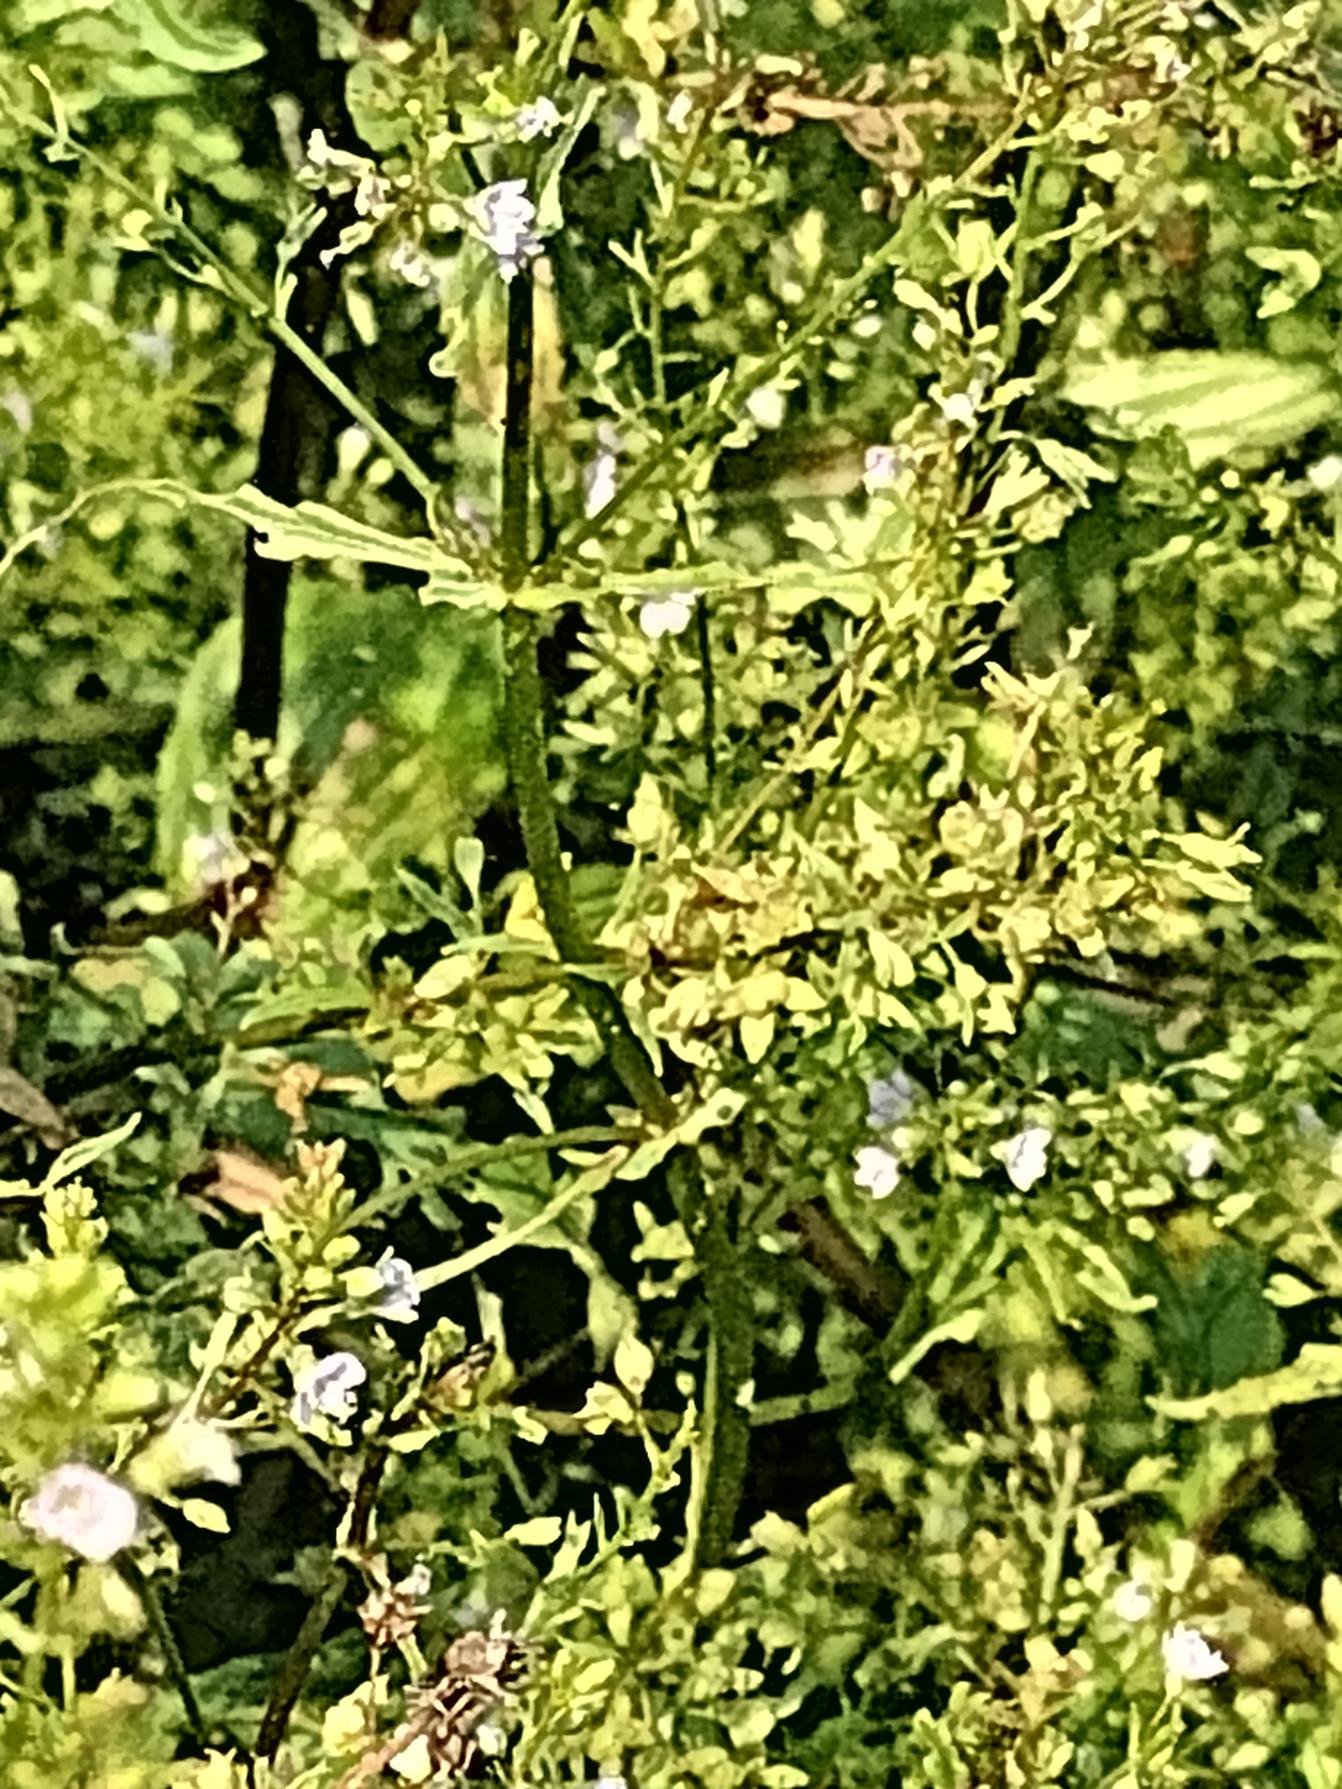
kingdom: Plantae
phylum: Tracheophyta
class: Magnoliopsida
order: Lamiales
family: Plantaginaceae
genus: Veronica
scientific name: Veronica anagallis-aquatica
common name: Lancetbladet ærenpris
